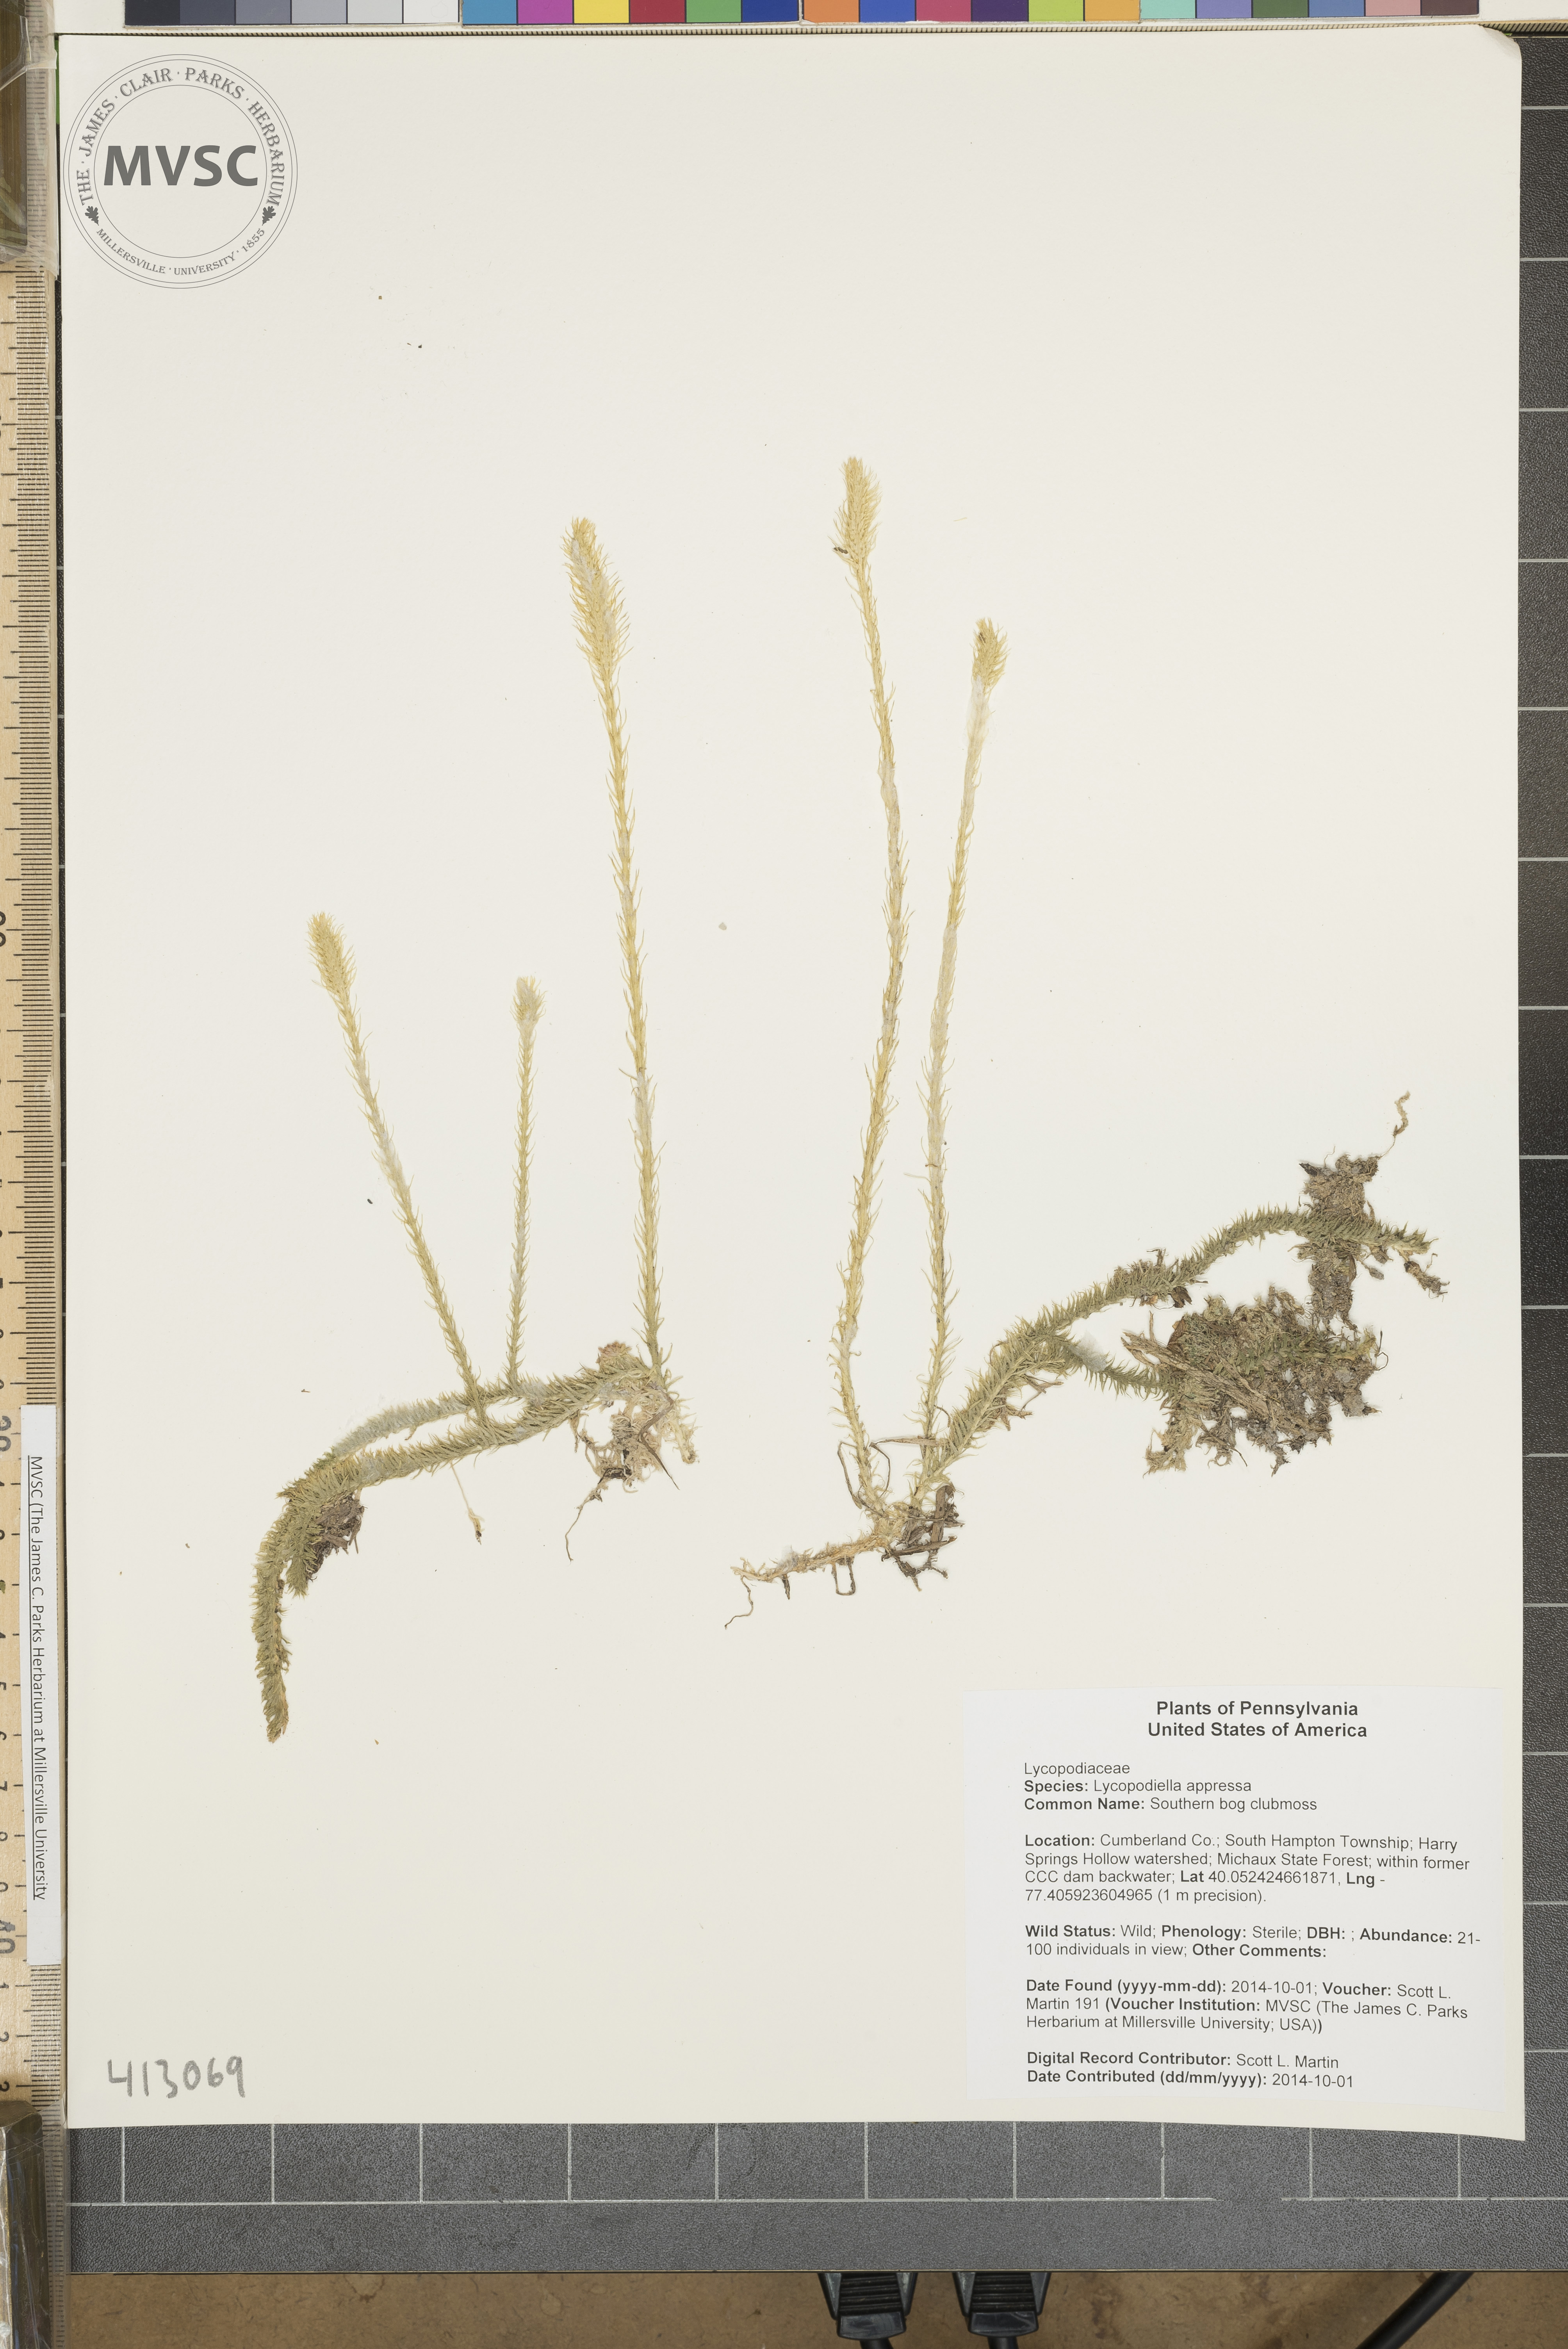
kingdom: Plantae
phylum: Tracheophyta
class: Lycopodiopsida
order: Lycopodiales
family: Lycopodiaceae
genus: Lycopodiella
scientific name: Lycopodiella appressa
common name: Southern bog clubmoss
